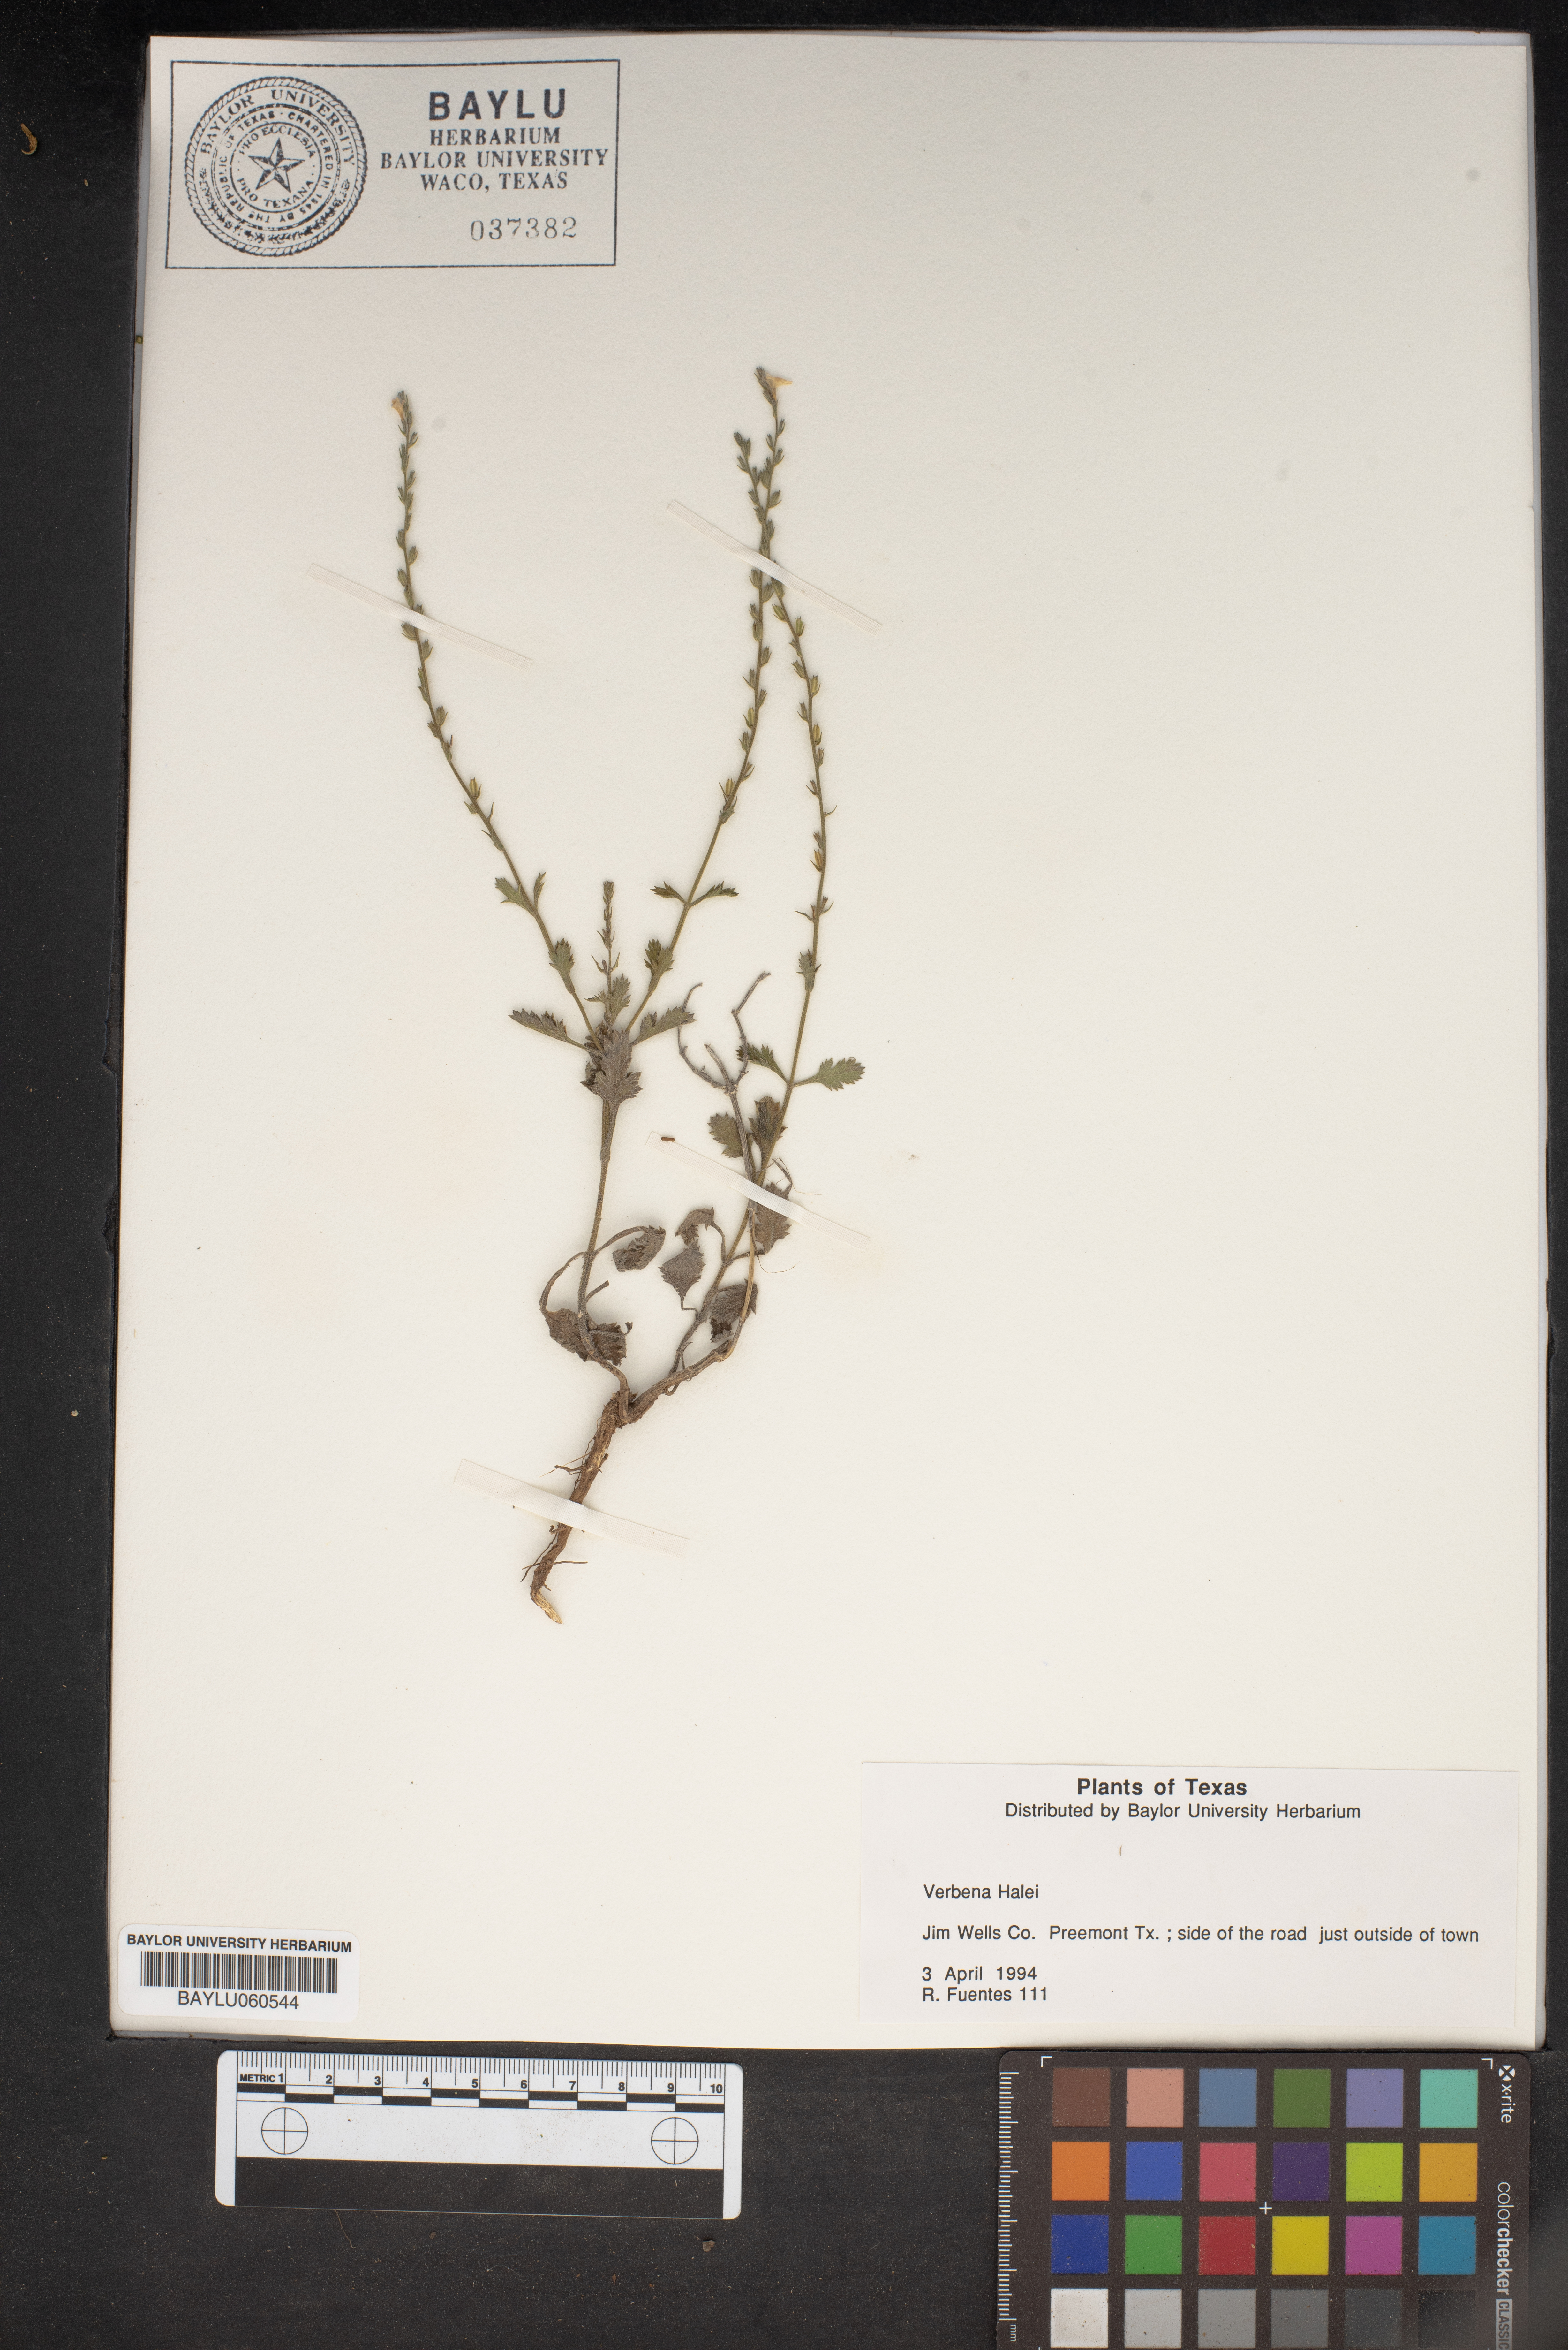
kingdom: Plantae
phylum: Tracheophyta
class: Magnoliopsida
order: Lamiales
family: Verbenaceae
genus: Verbena
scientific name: Verbena halei
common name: Texas vervain
